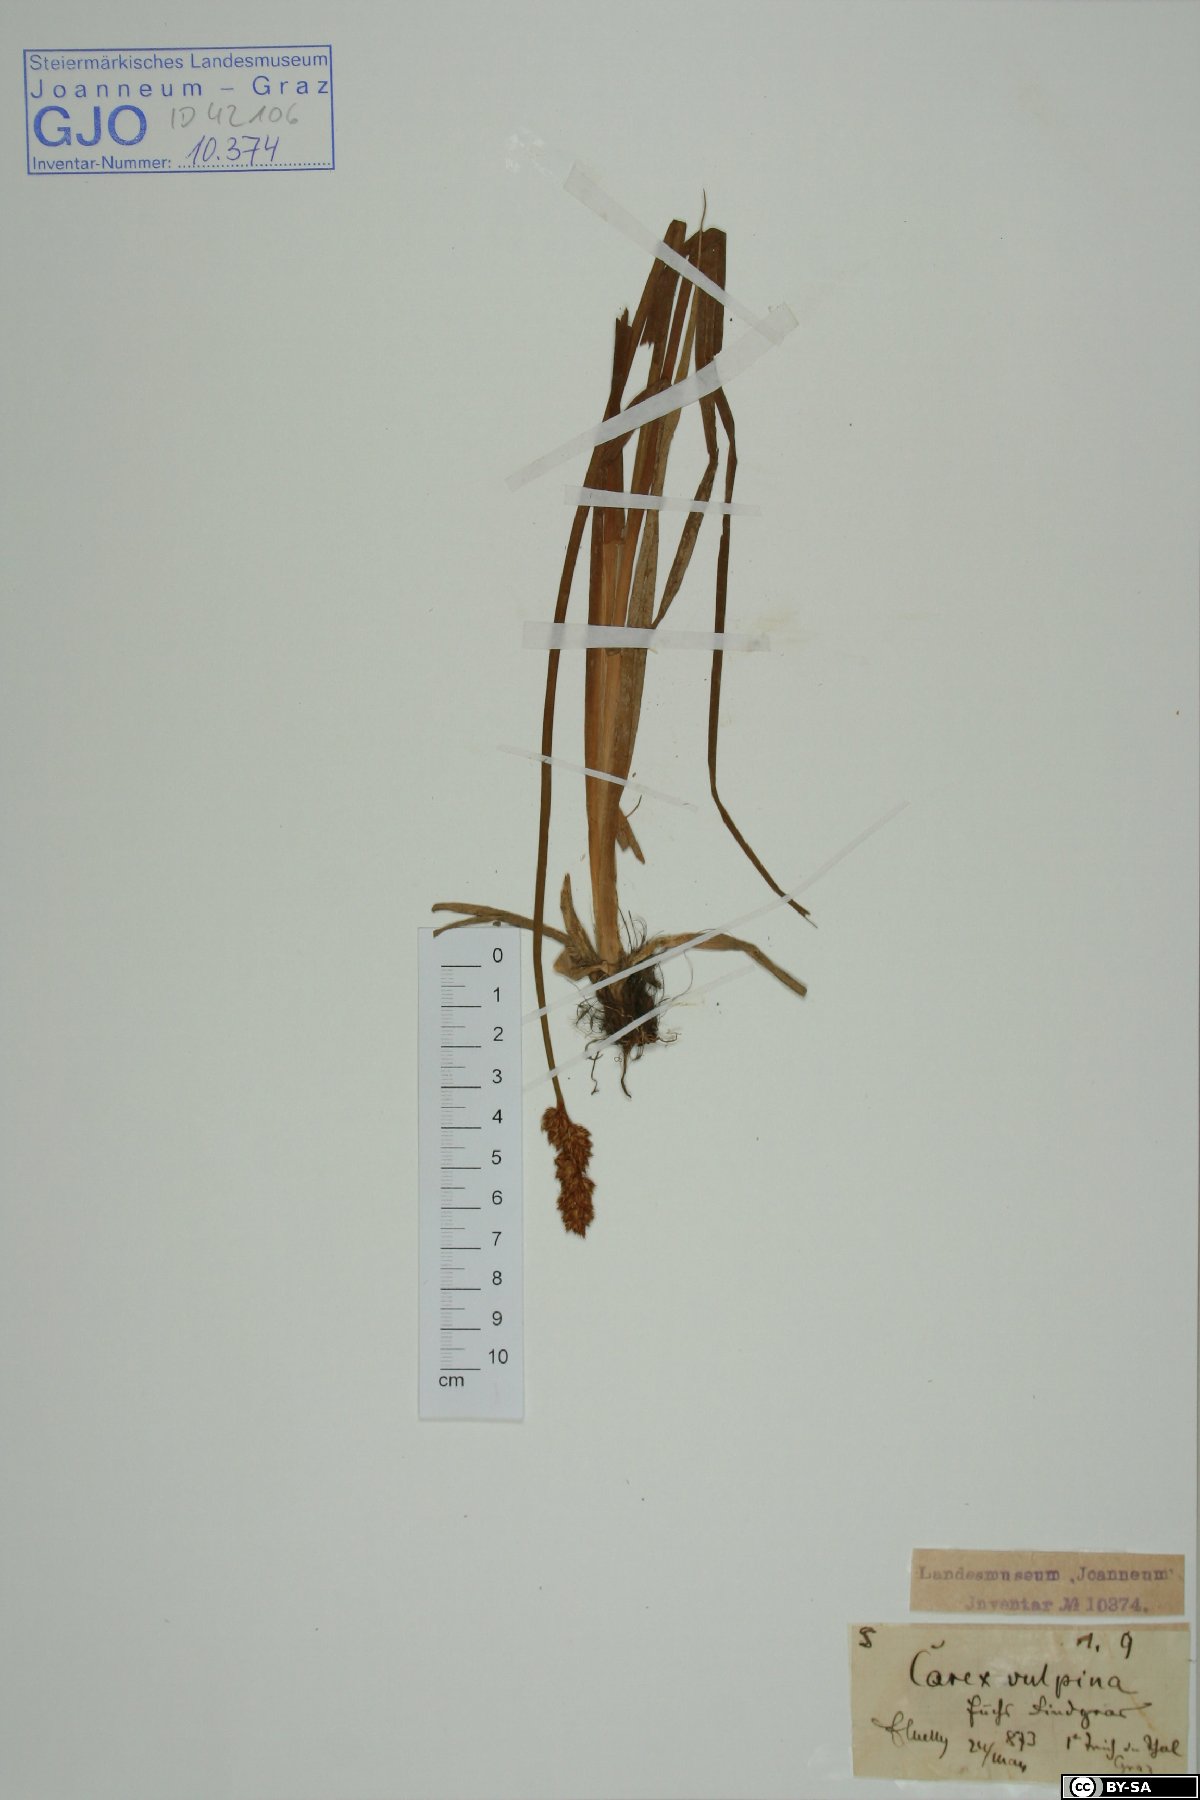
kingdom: Plantae
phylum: Tracheophyta
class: Liliopsida
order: Poales
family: Cyperaceae
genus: Carex
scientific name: Carex vulpina
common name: True fox-sedge
